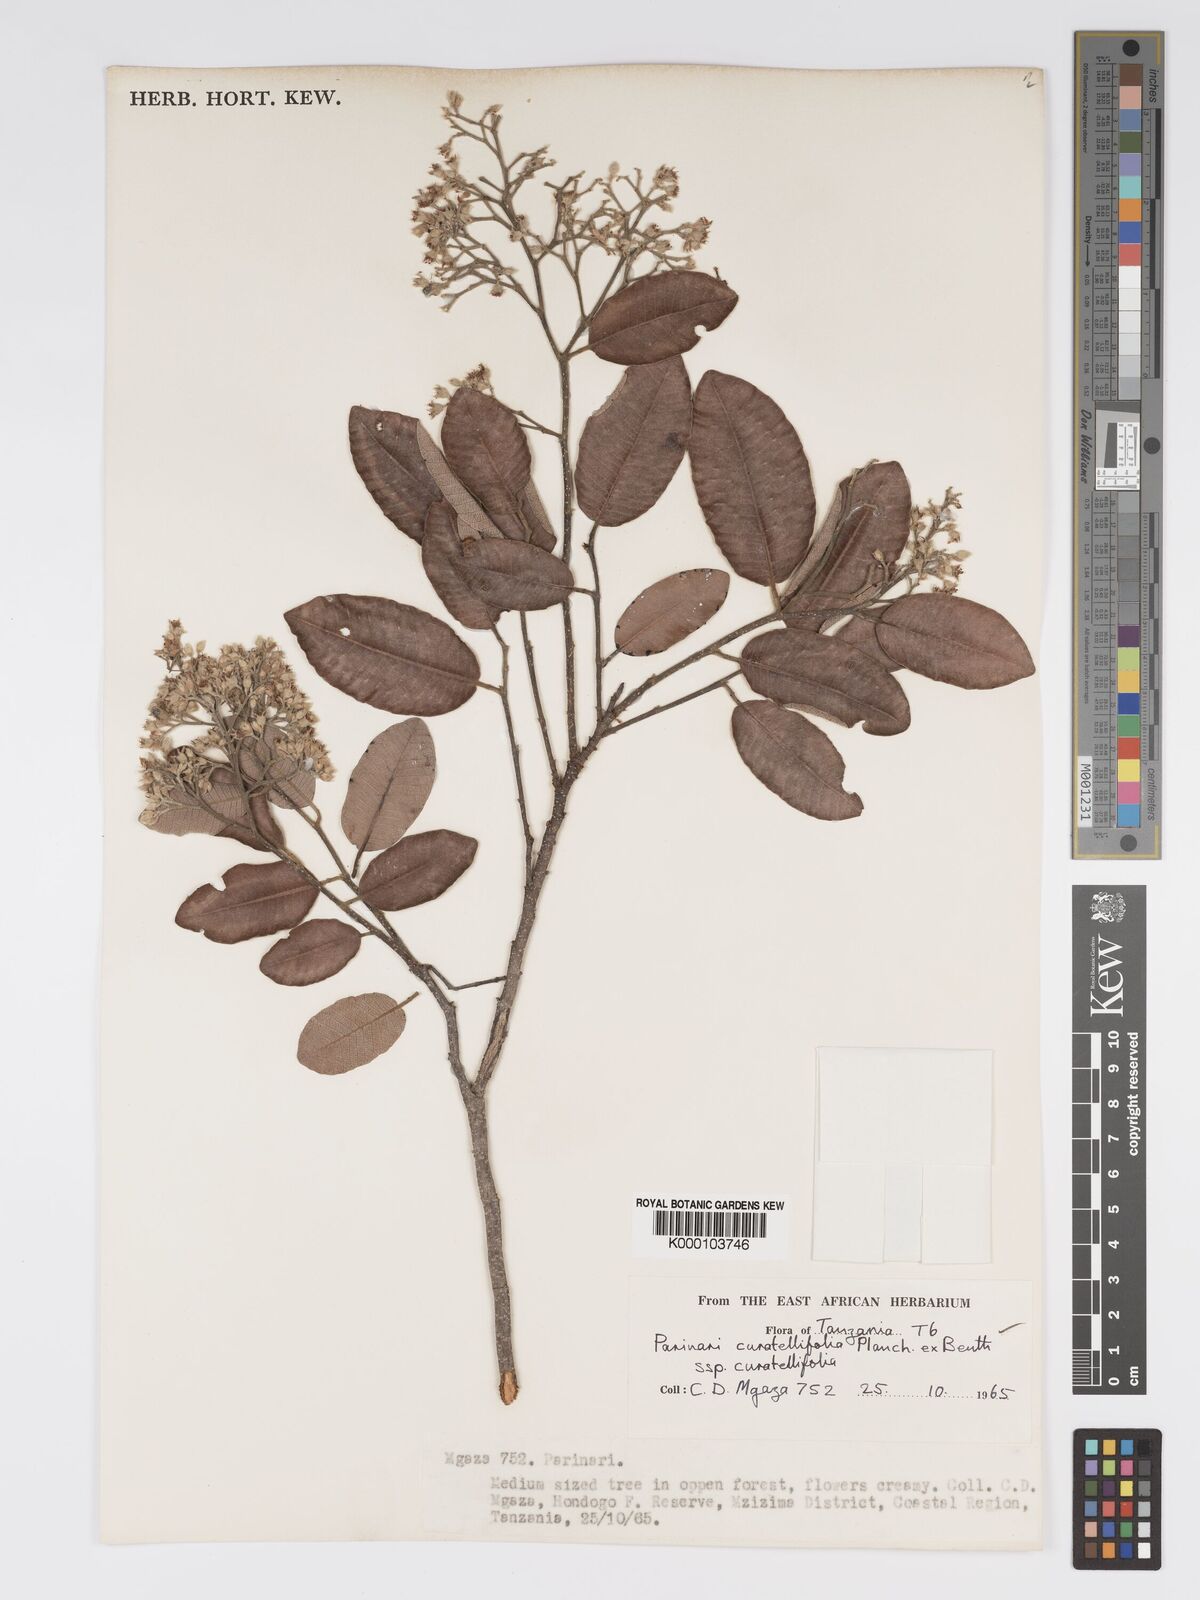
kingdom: Plantae
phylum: Tracheophyta
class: Magnoliopsida
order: Malpighiales
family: Chrysobalanaceae
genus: Parinari
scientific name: Parinari curatellifolia
